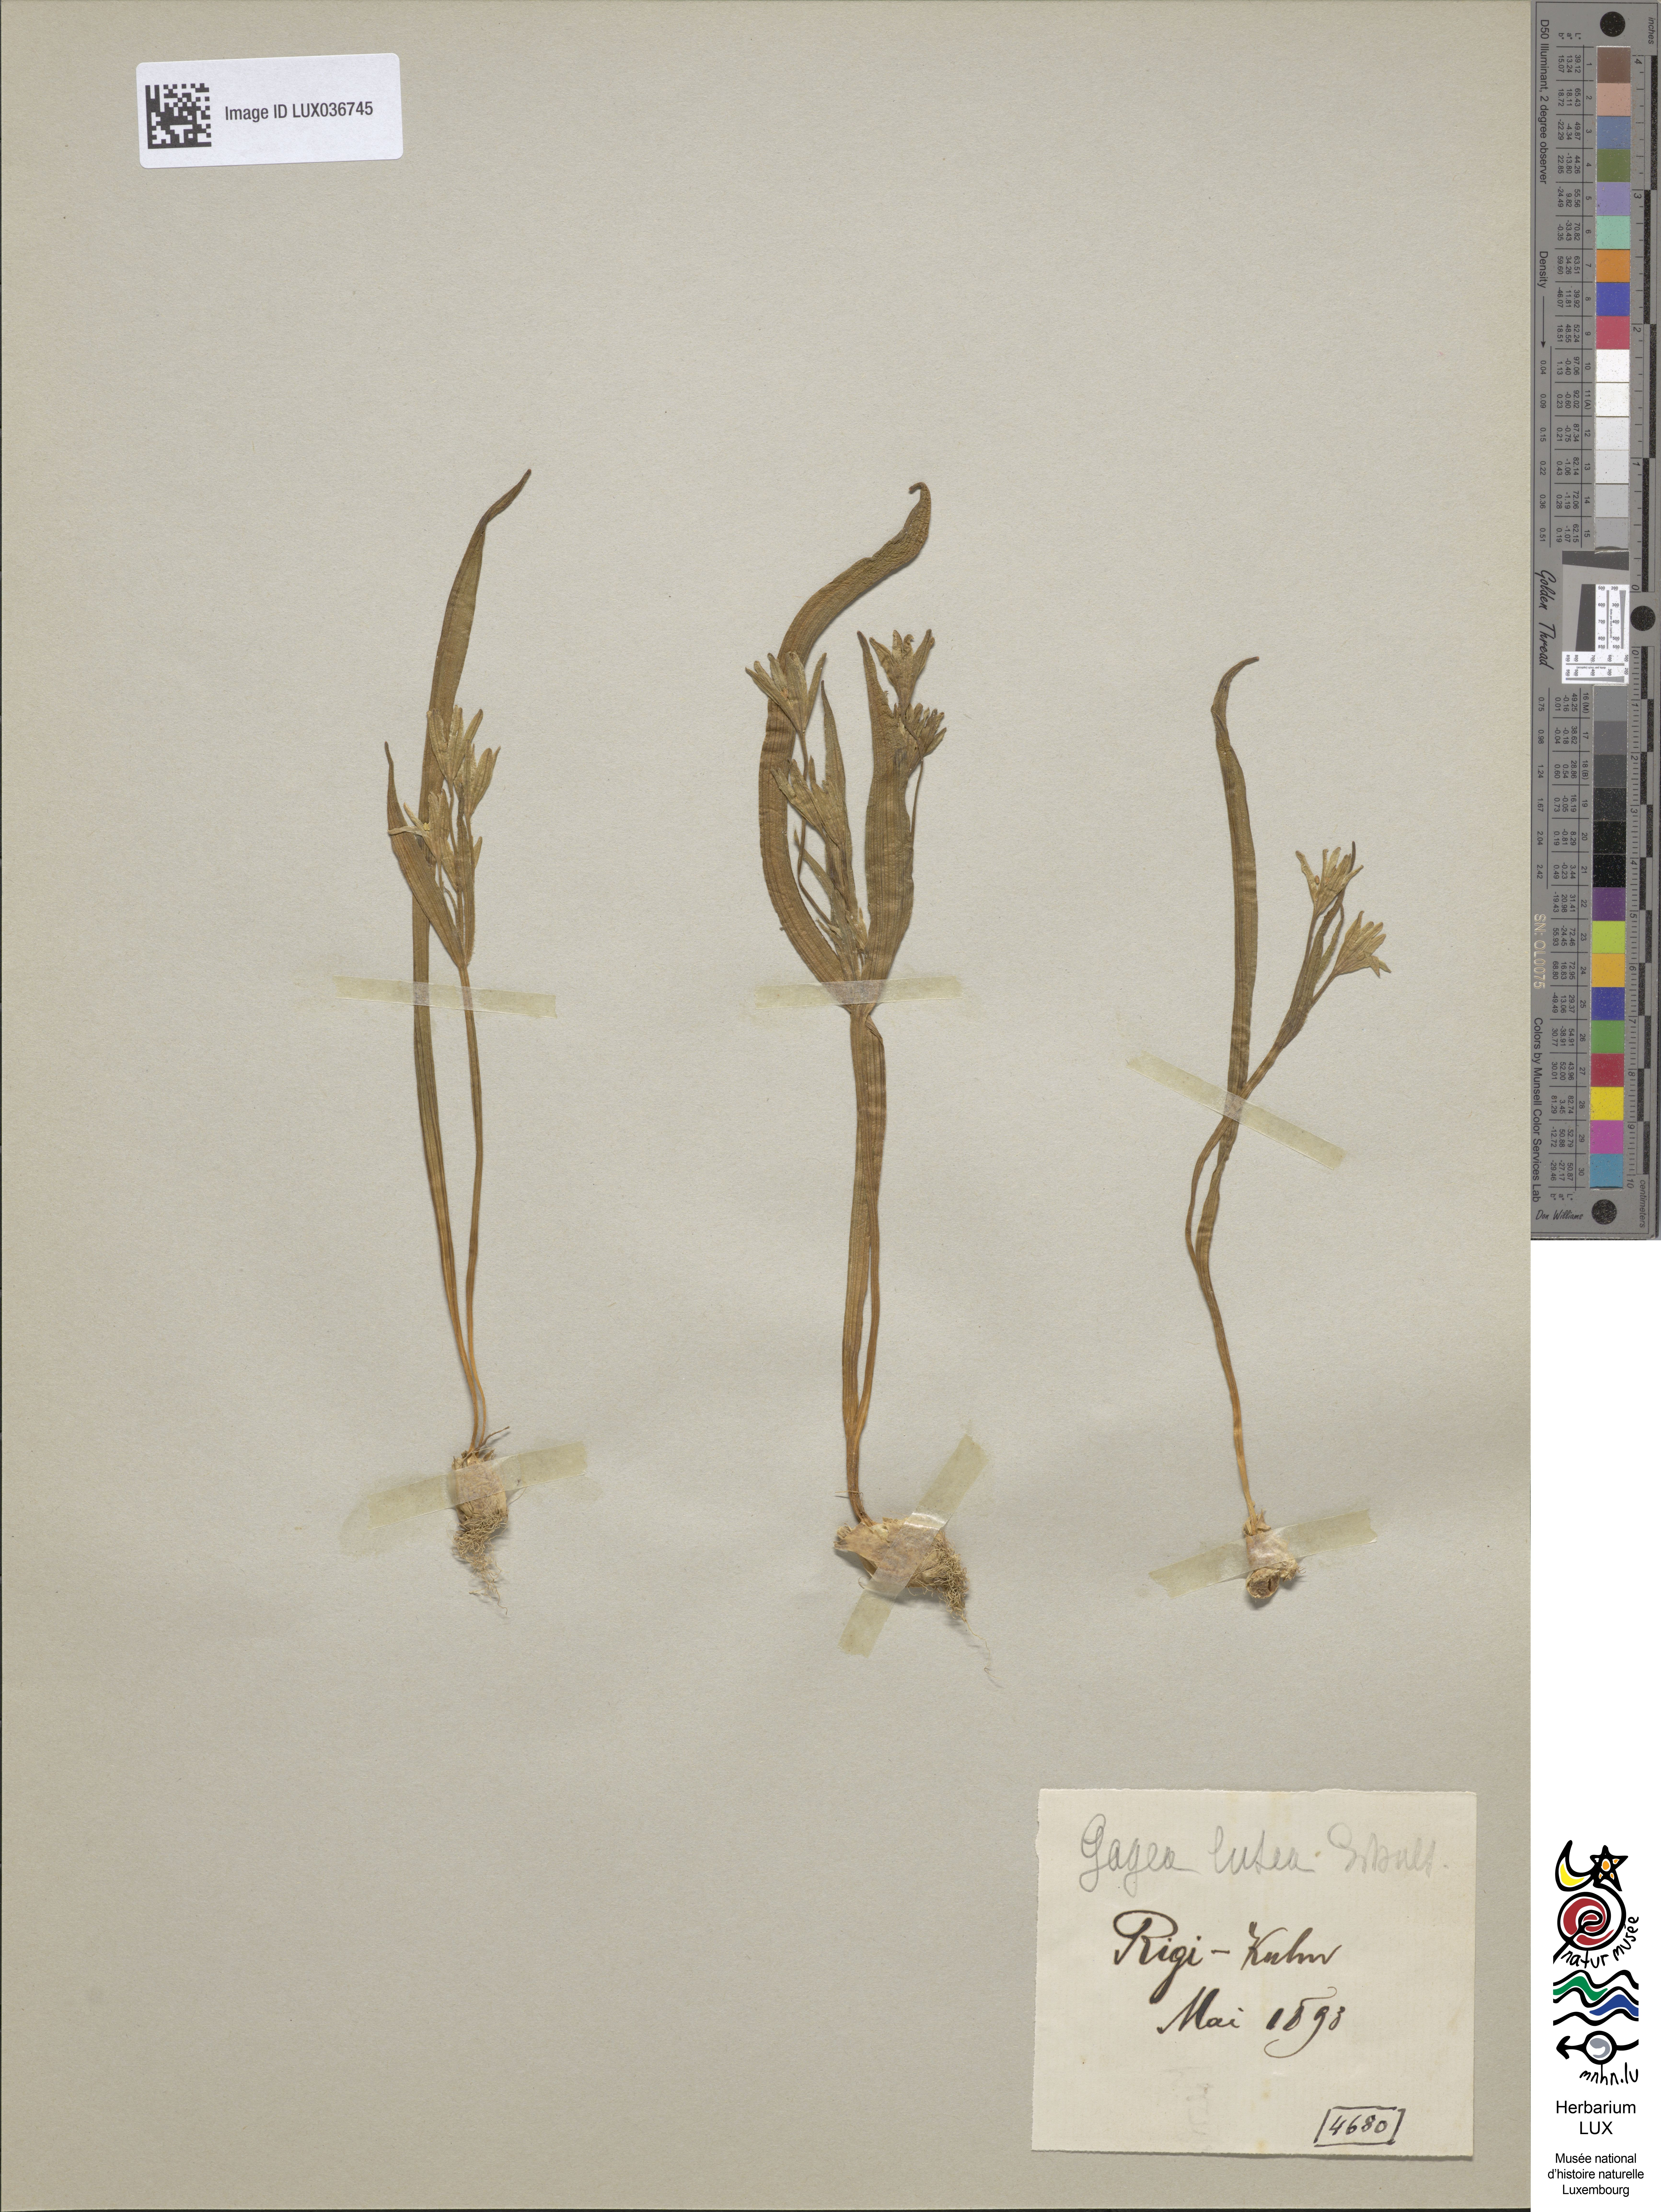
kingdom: Plantae
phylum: Tracheophyta
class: Liliopsida
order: Liliales
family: Liliaceae
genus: Gagea
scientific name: Gagea lutea
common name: Yellow star-of-bethlehem
